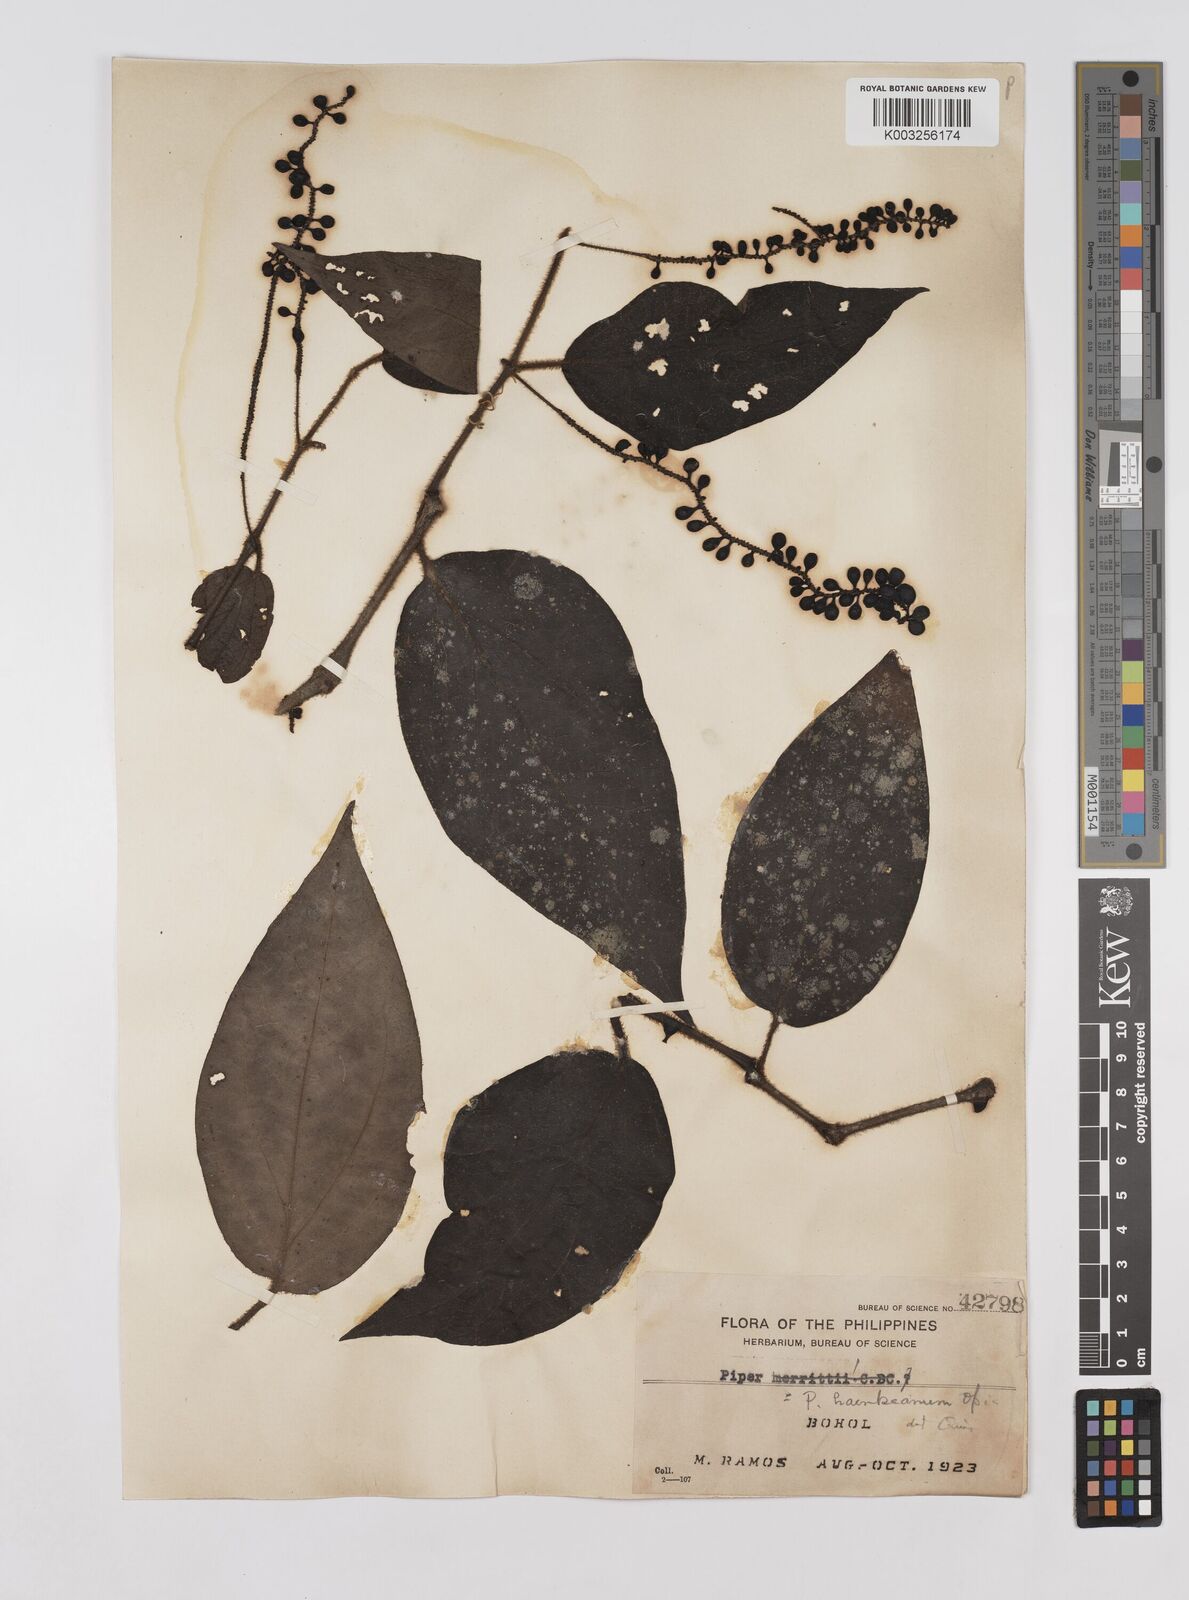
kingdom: Plantae
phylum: Tracheophyta
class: Magnoliopsida
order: Piperales
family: Piperaceae
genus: Piper
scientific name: Piper lanatum
